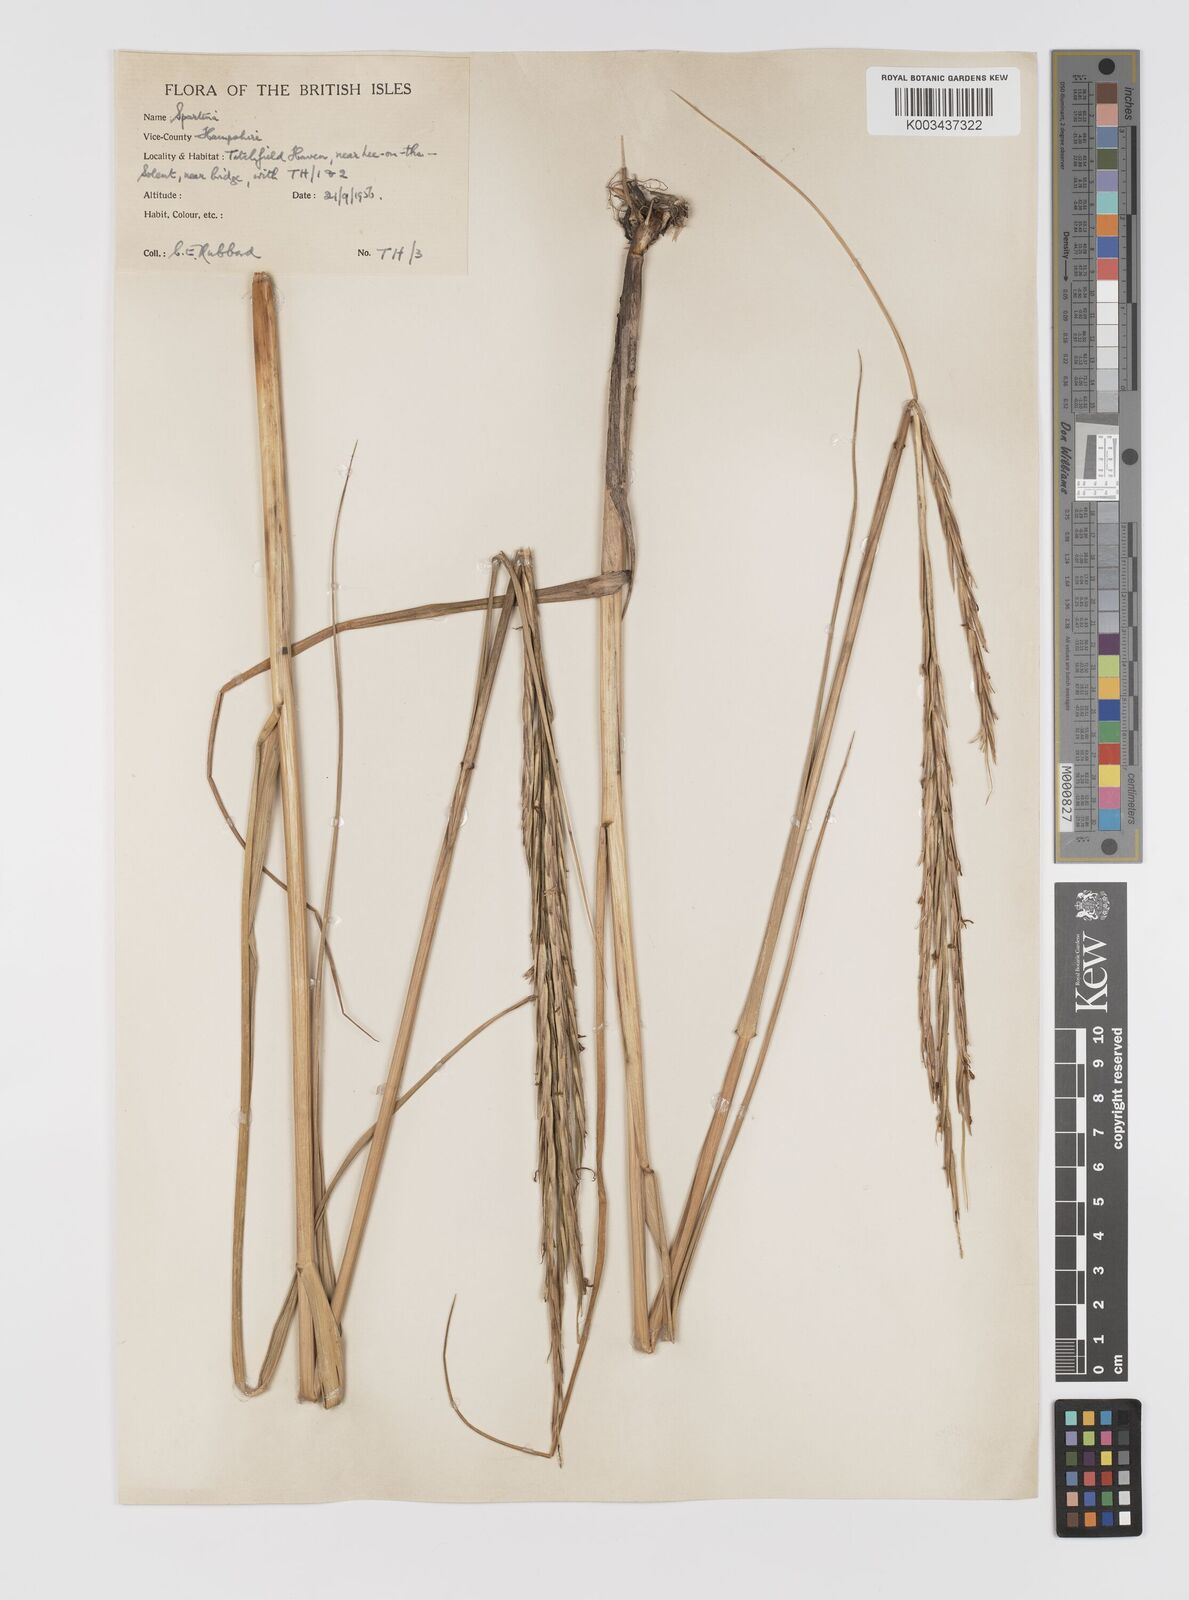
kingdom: Plantae
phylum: Tracheophyta
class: Liliopsida
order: Poales
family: Poaceae
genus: Sporobolus
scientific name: Sporobolus townsendii
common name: Townsend's cordgrass
